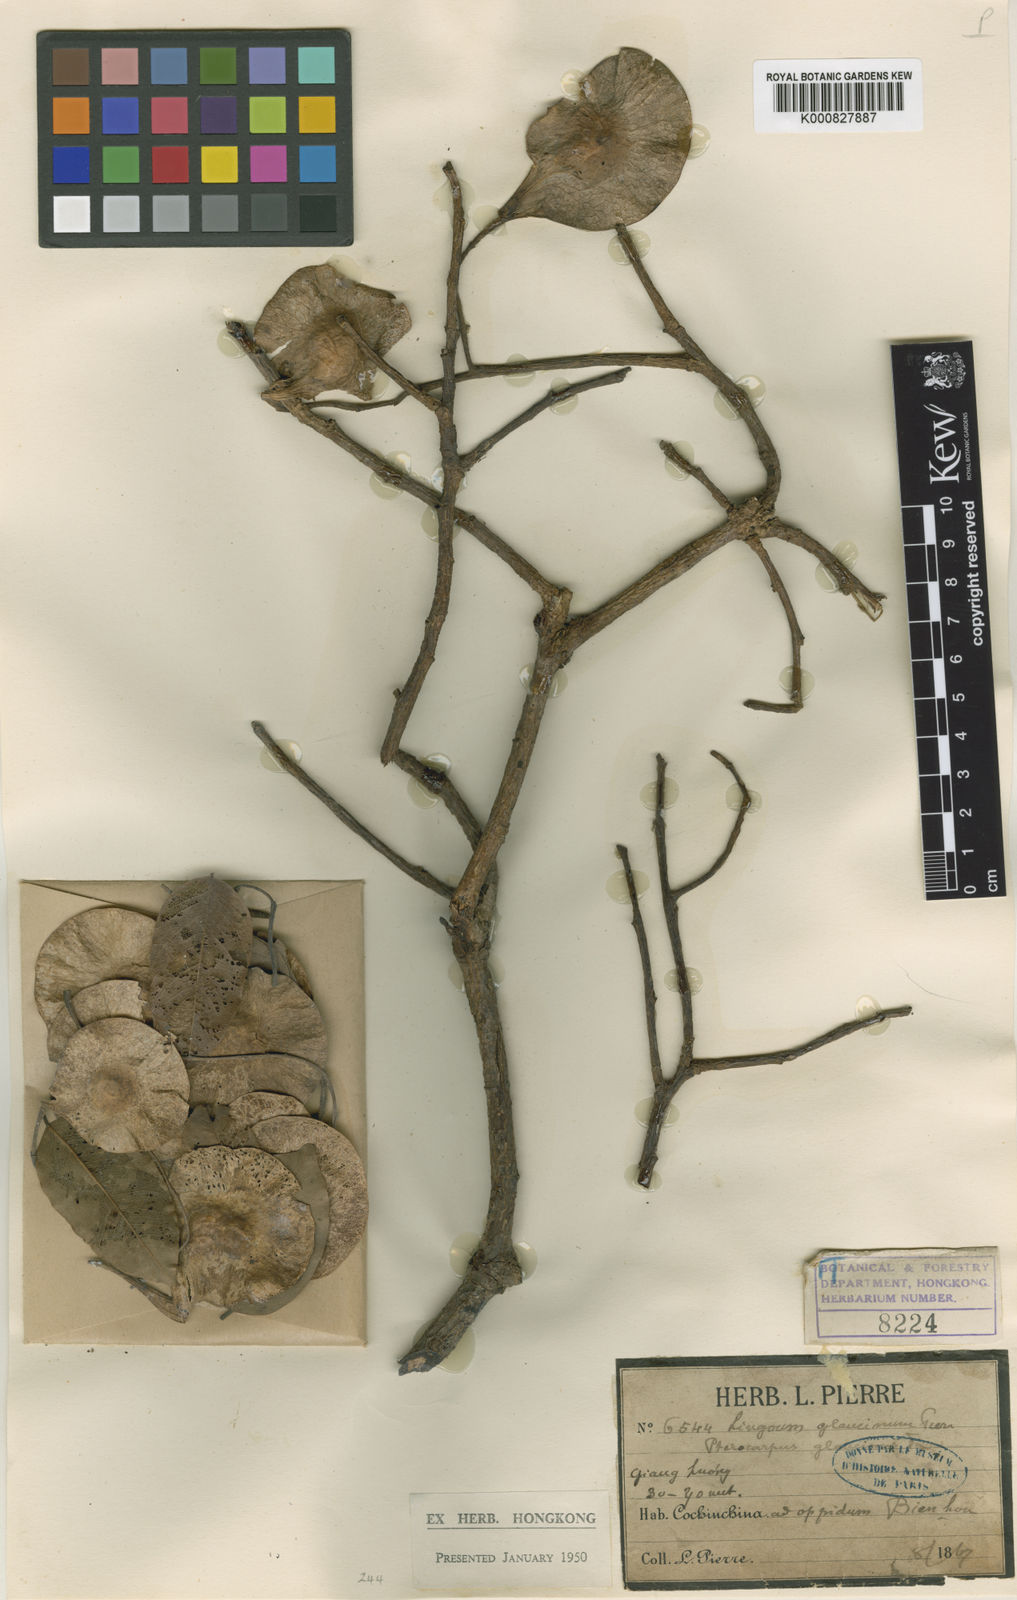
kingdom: Plantae
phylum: Tracheophyta
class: Magnoliopsida
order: Fabales
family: Fabaceae
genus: Pterocarpus
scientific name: Pterocarpus
